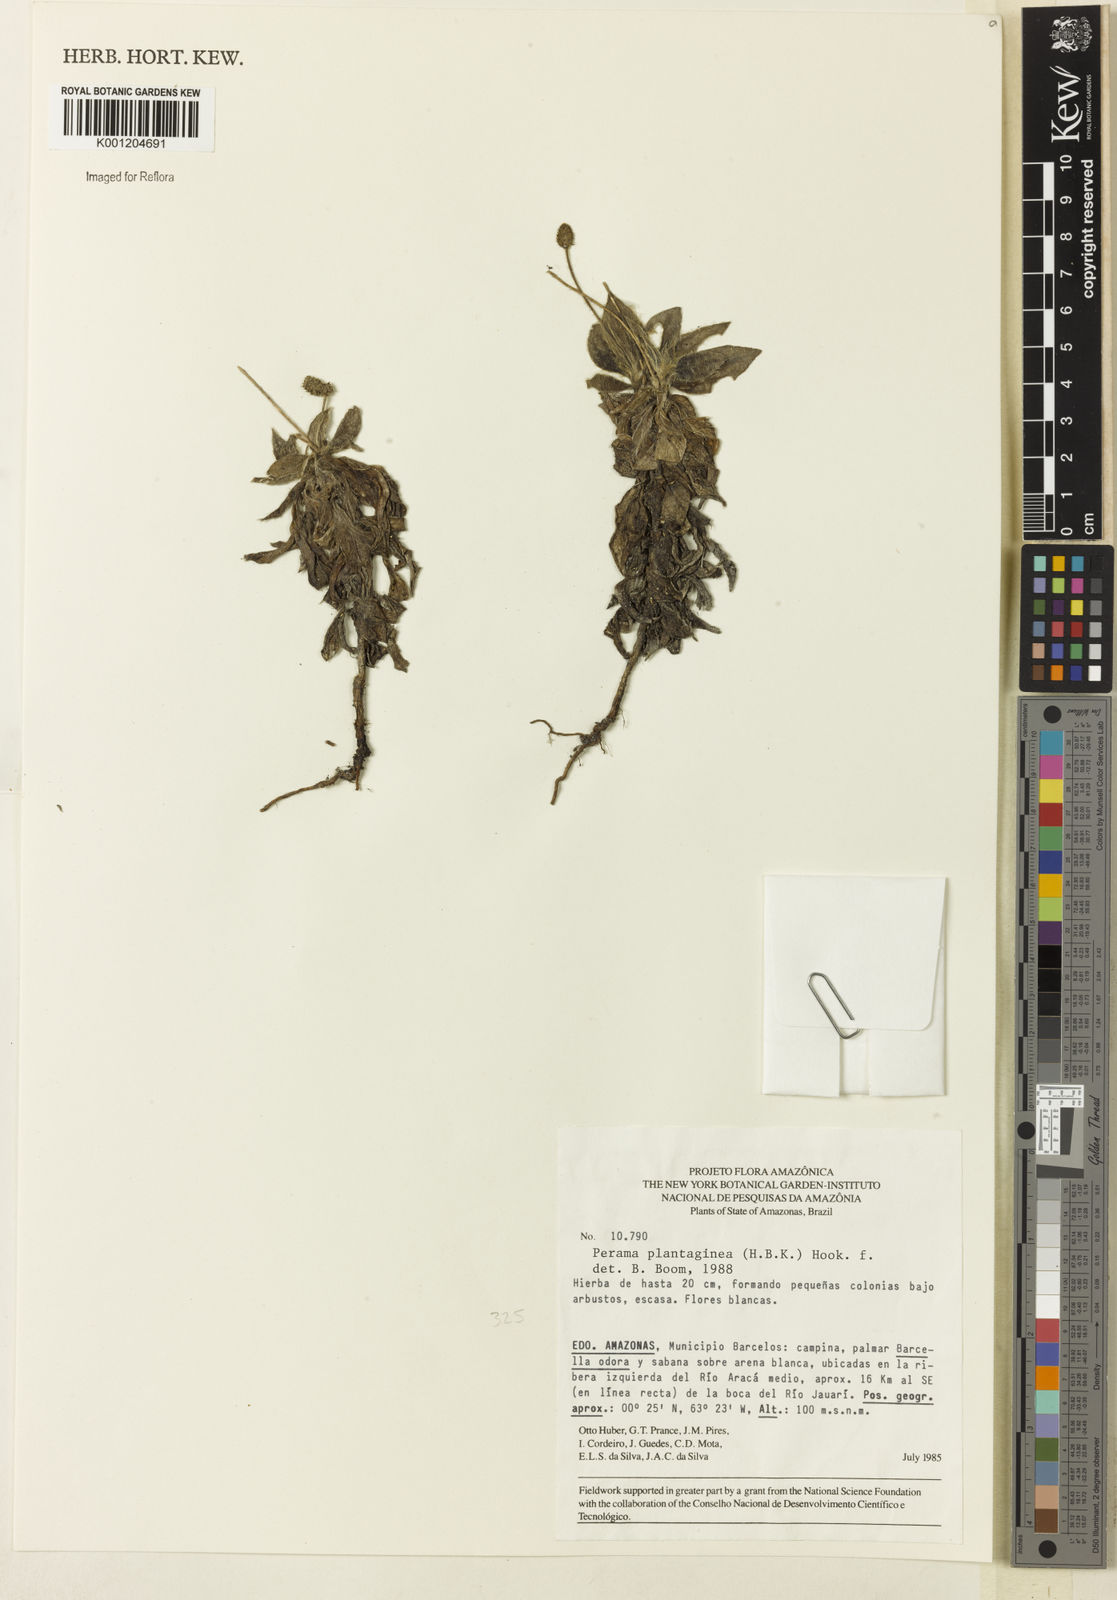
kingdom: Plantae
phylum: Tracheophyta
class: Magnoliopsida
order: Gentianales
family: Rubiaceae
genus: Perama
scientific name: Perama plantaginea
